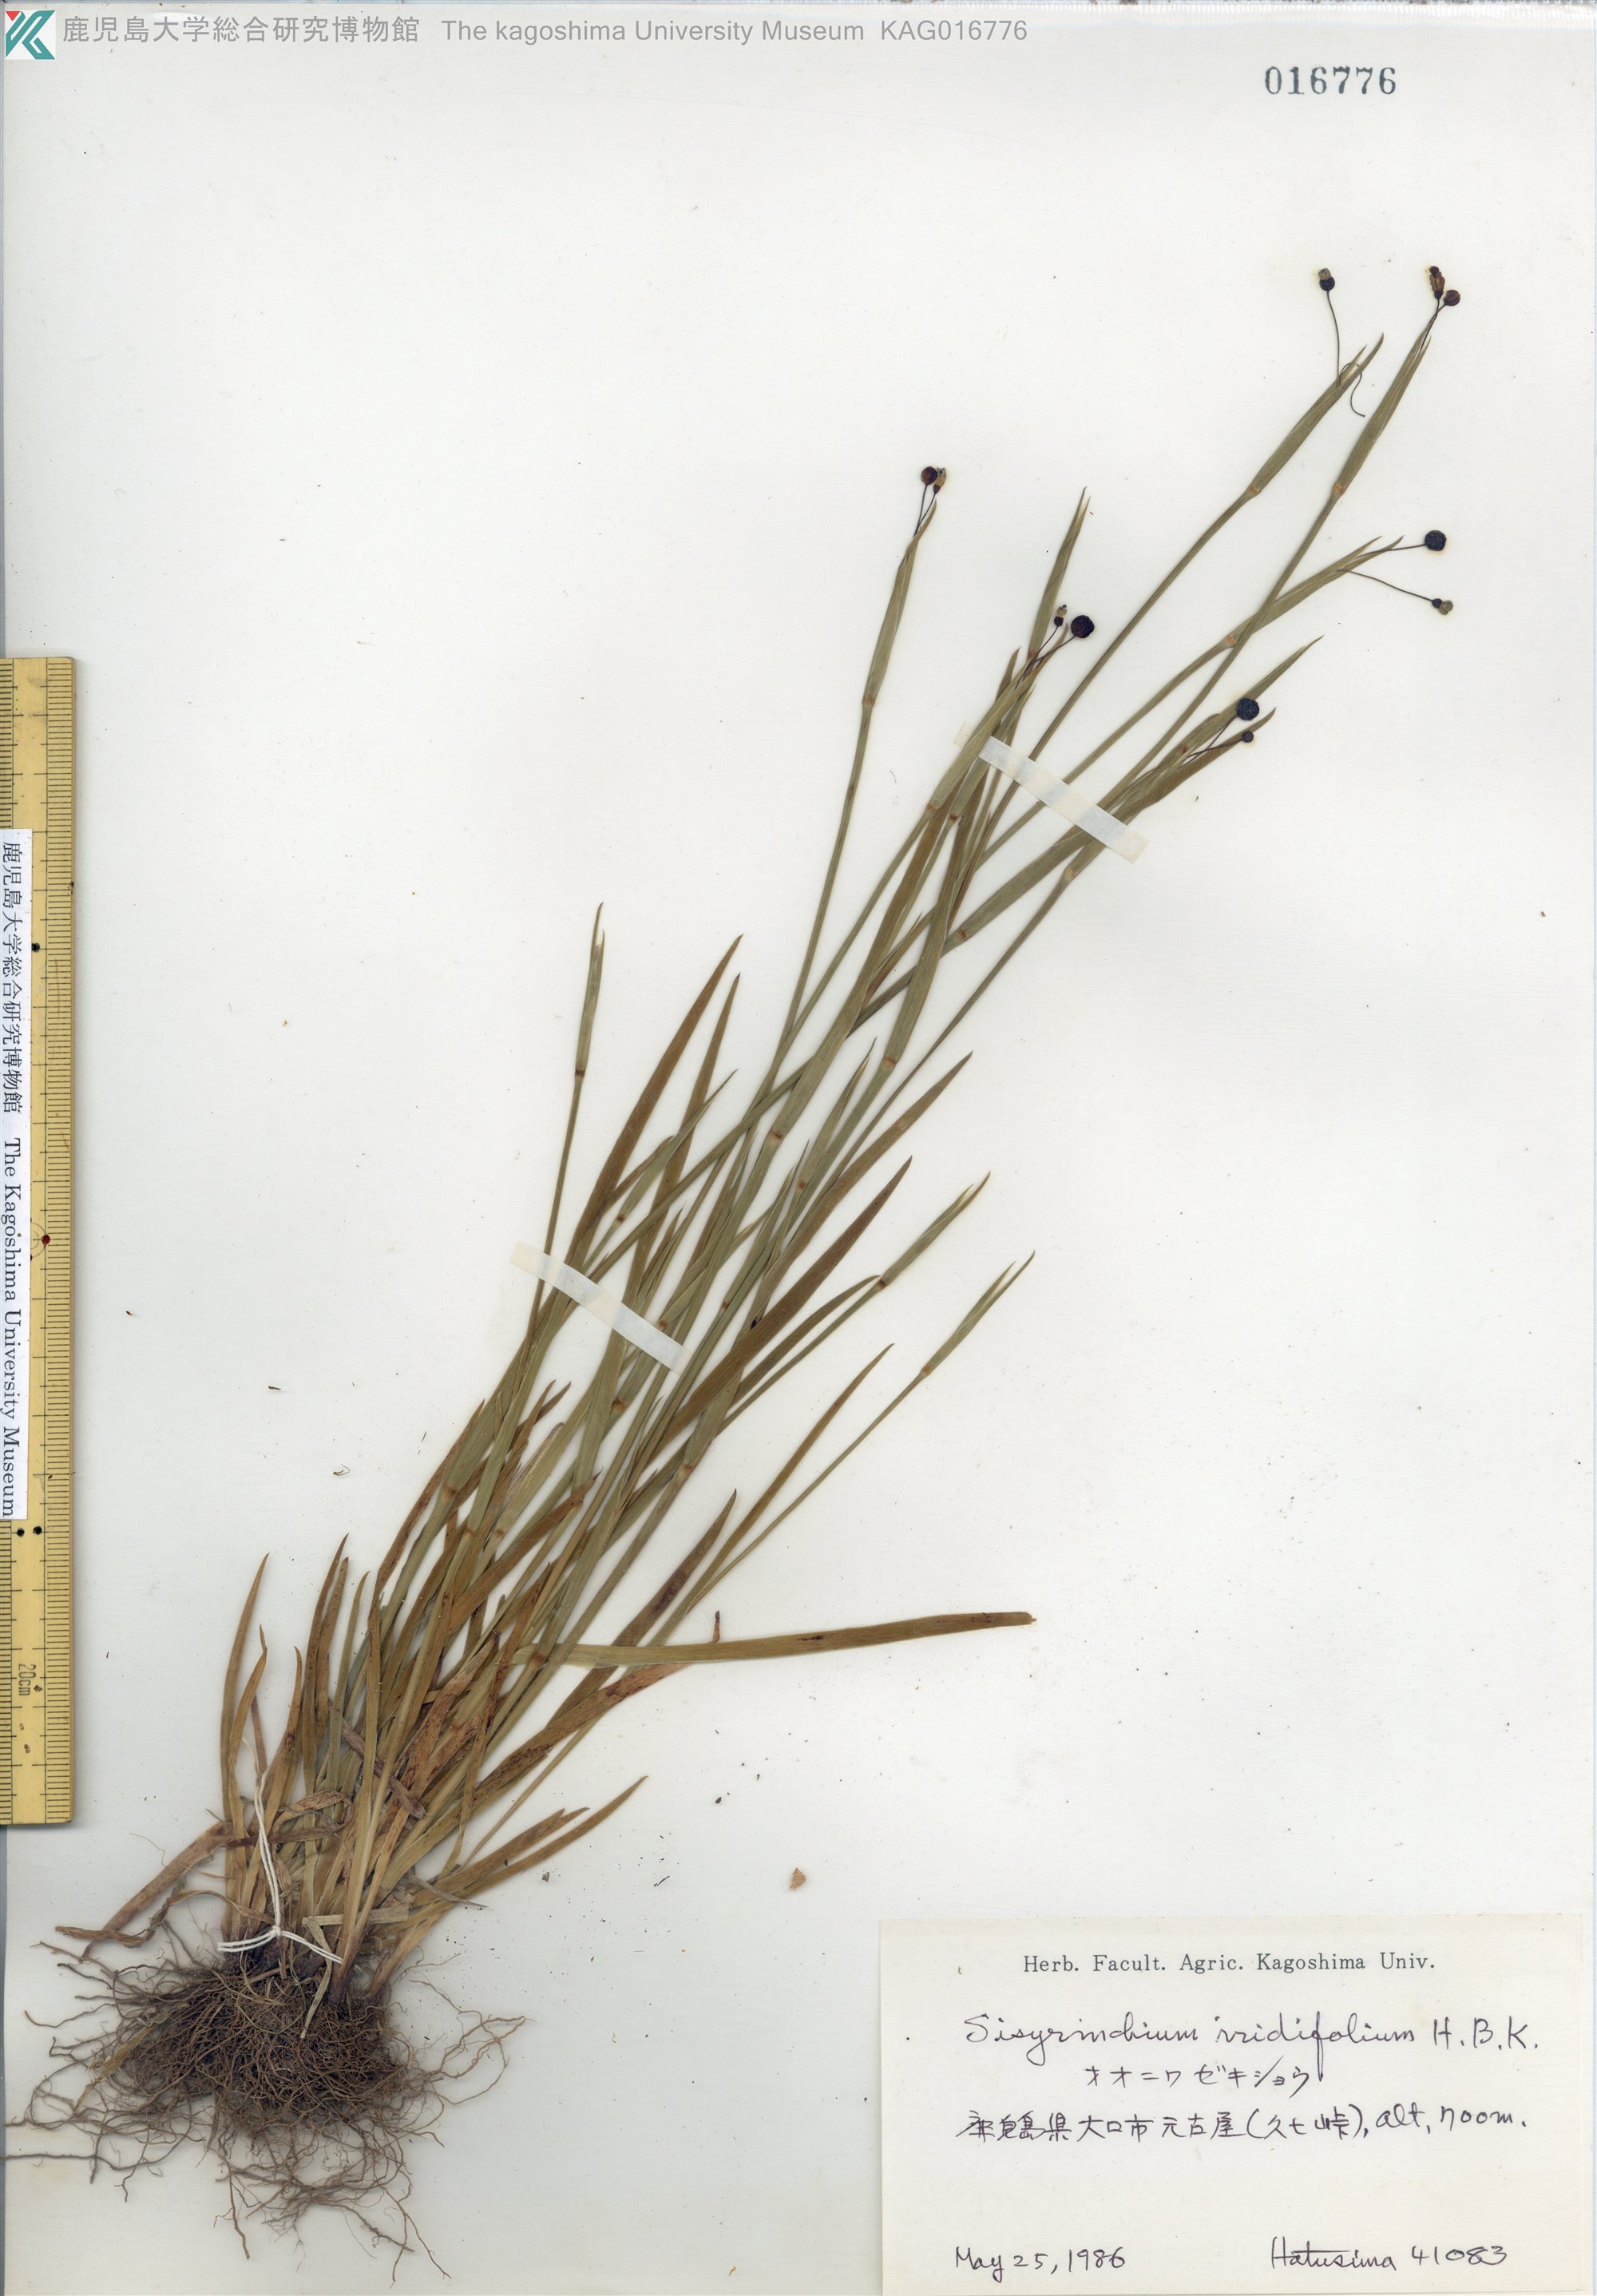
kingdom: Plantae
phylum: Tracheophyta
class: Liliopsida
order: Asparagales
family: Iridaceae
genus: Sisyrinchium
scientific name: Sisyrinchium micranthum
